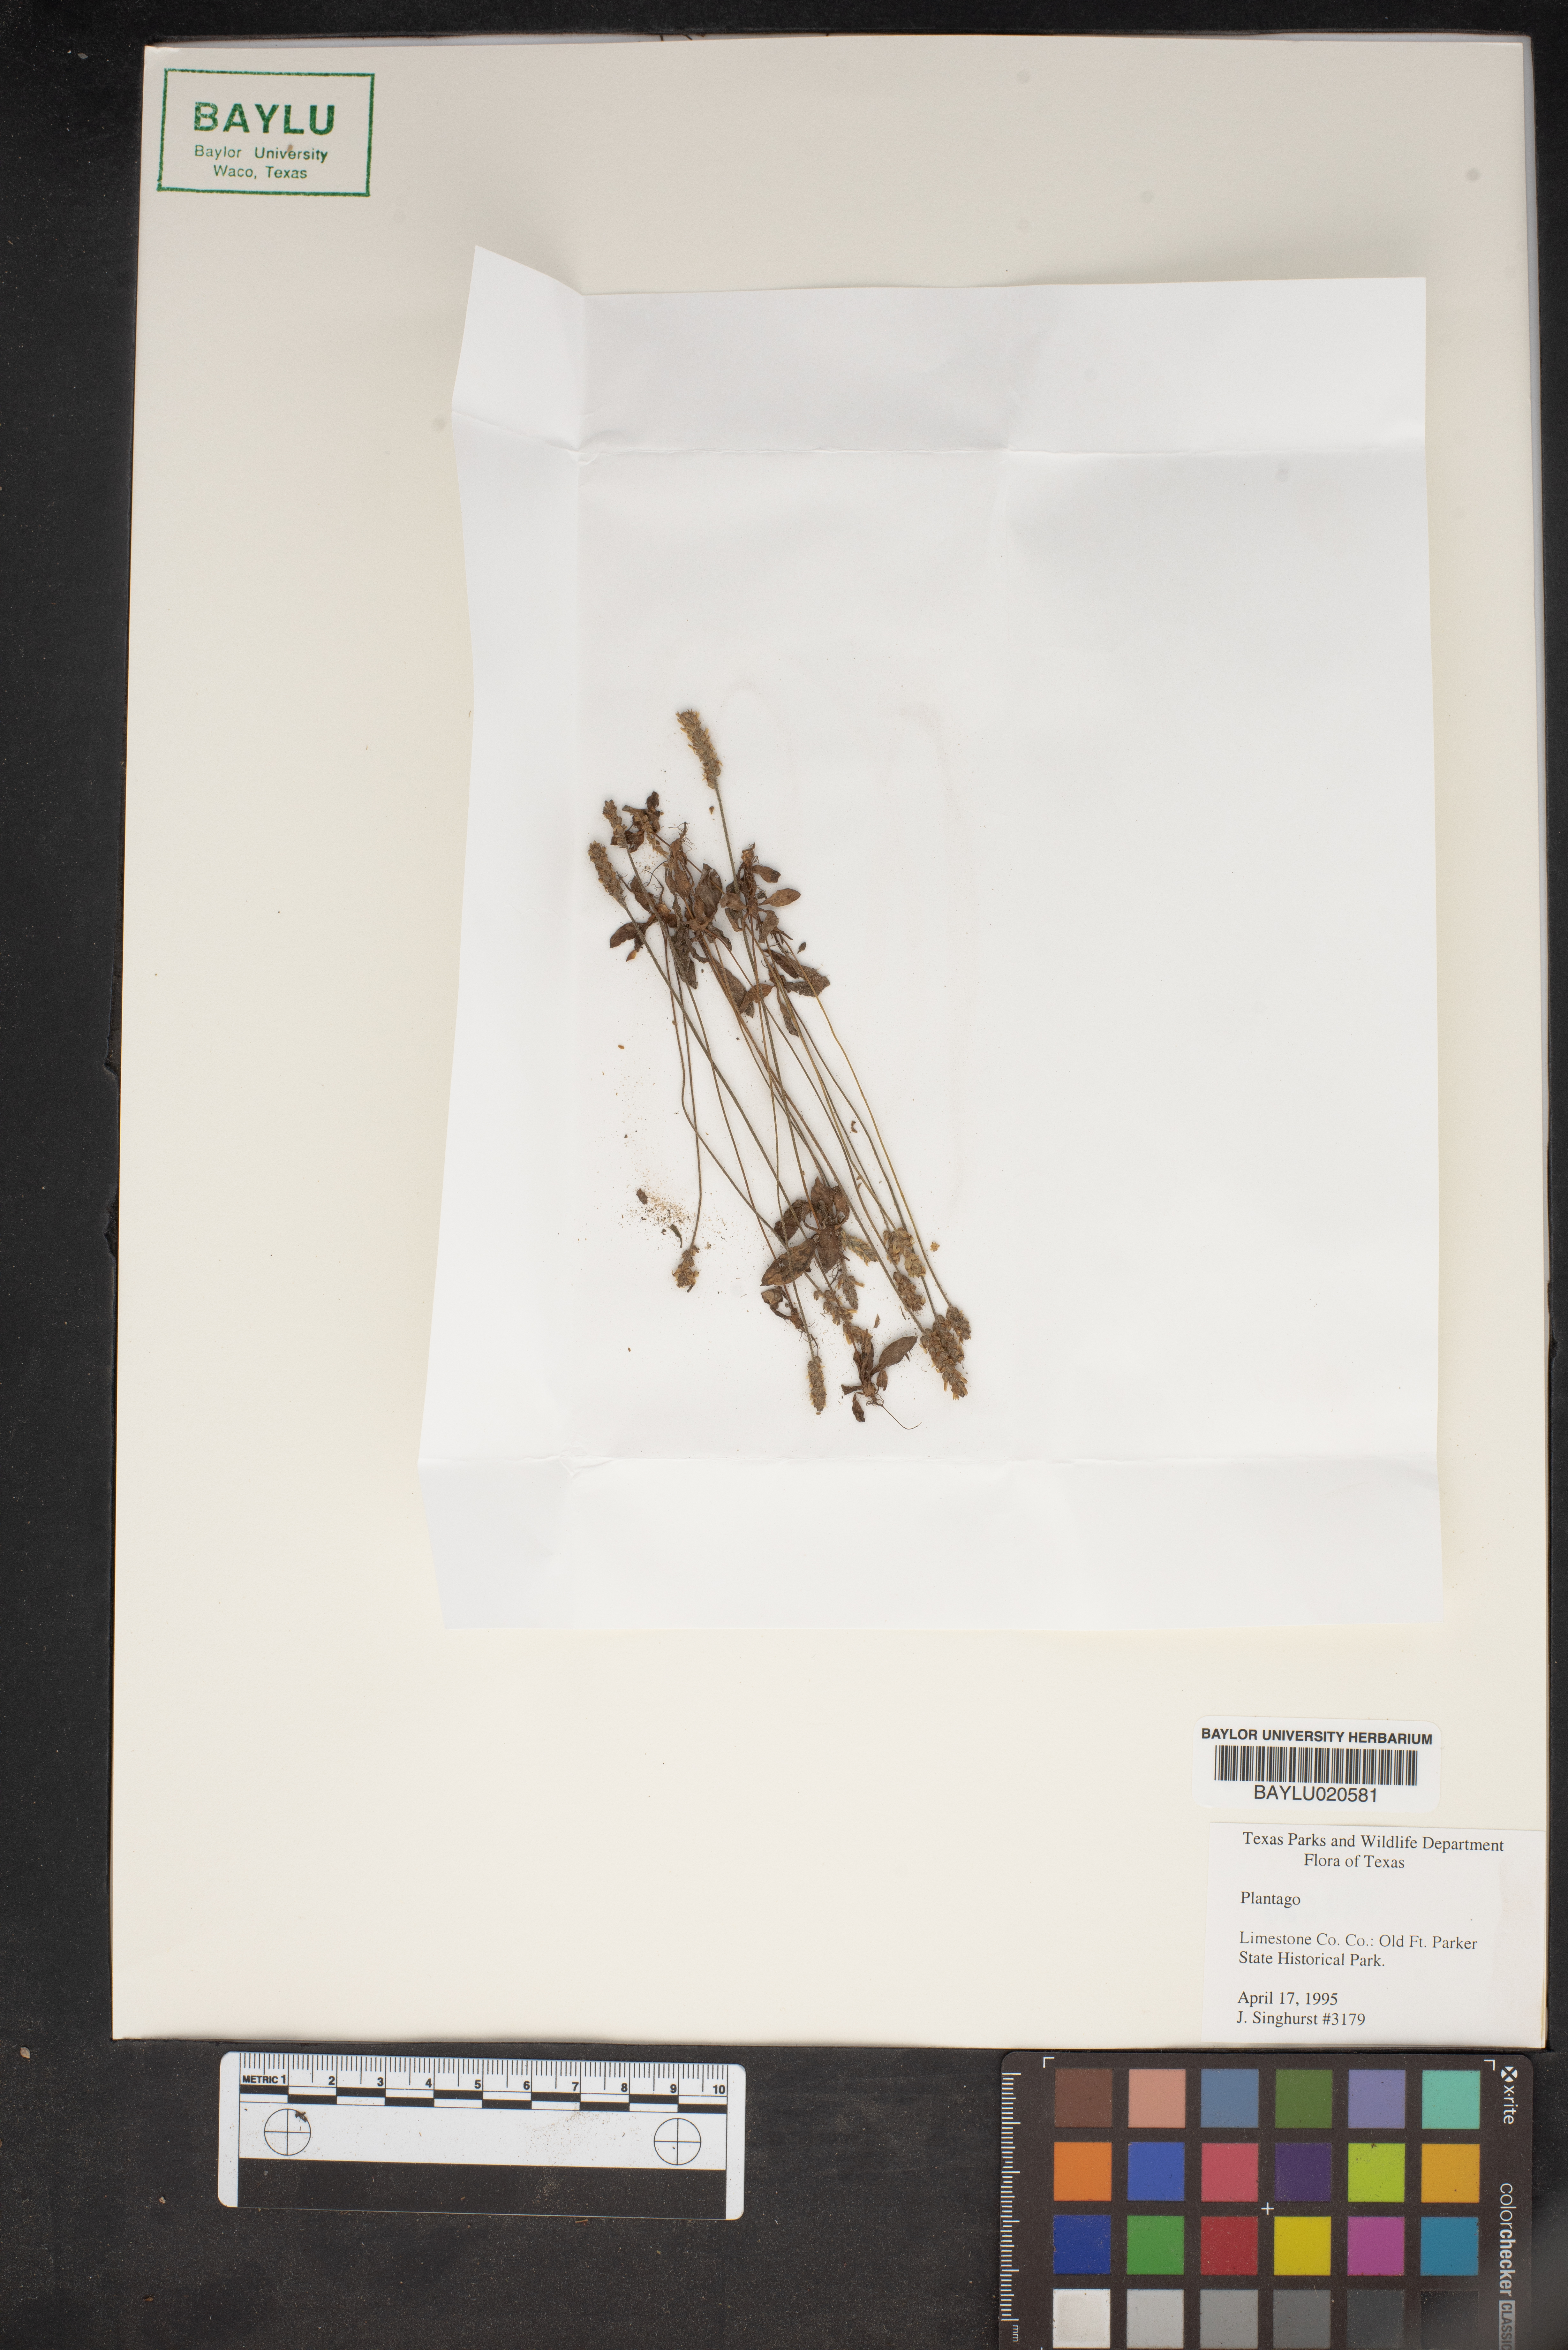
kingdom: Plantae
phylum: Tracheophyta
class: Magnoliopsida
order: Lamiales
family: Plantaginaceae
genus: Plantago
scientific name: Plantago
